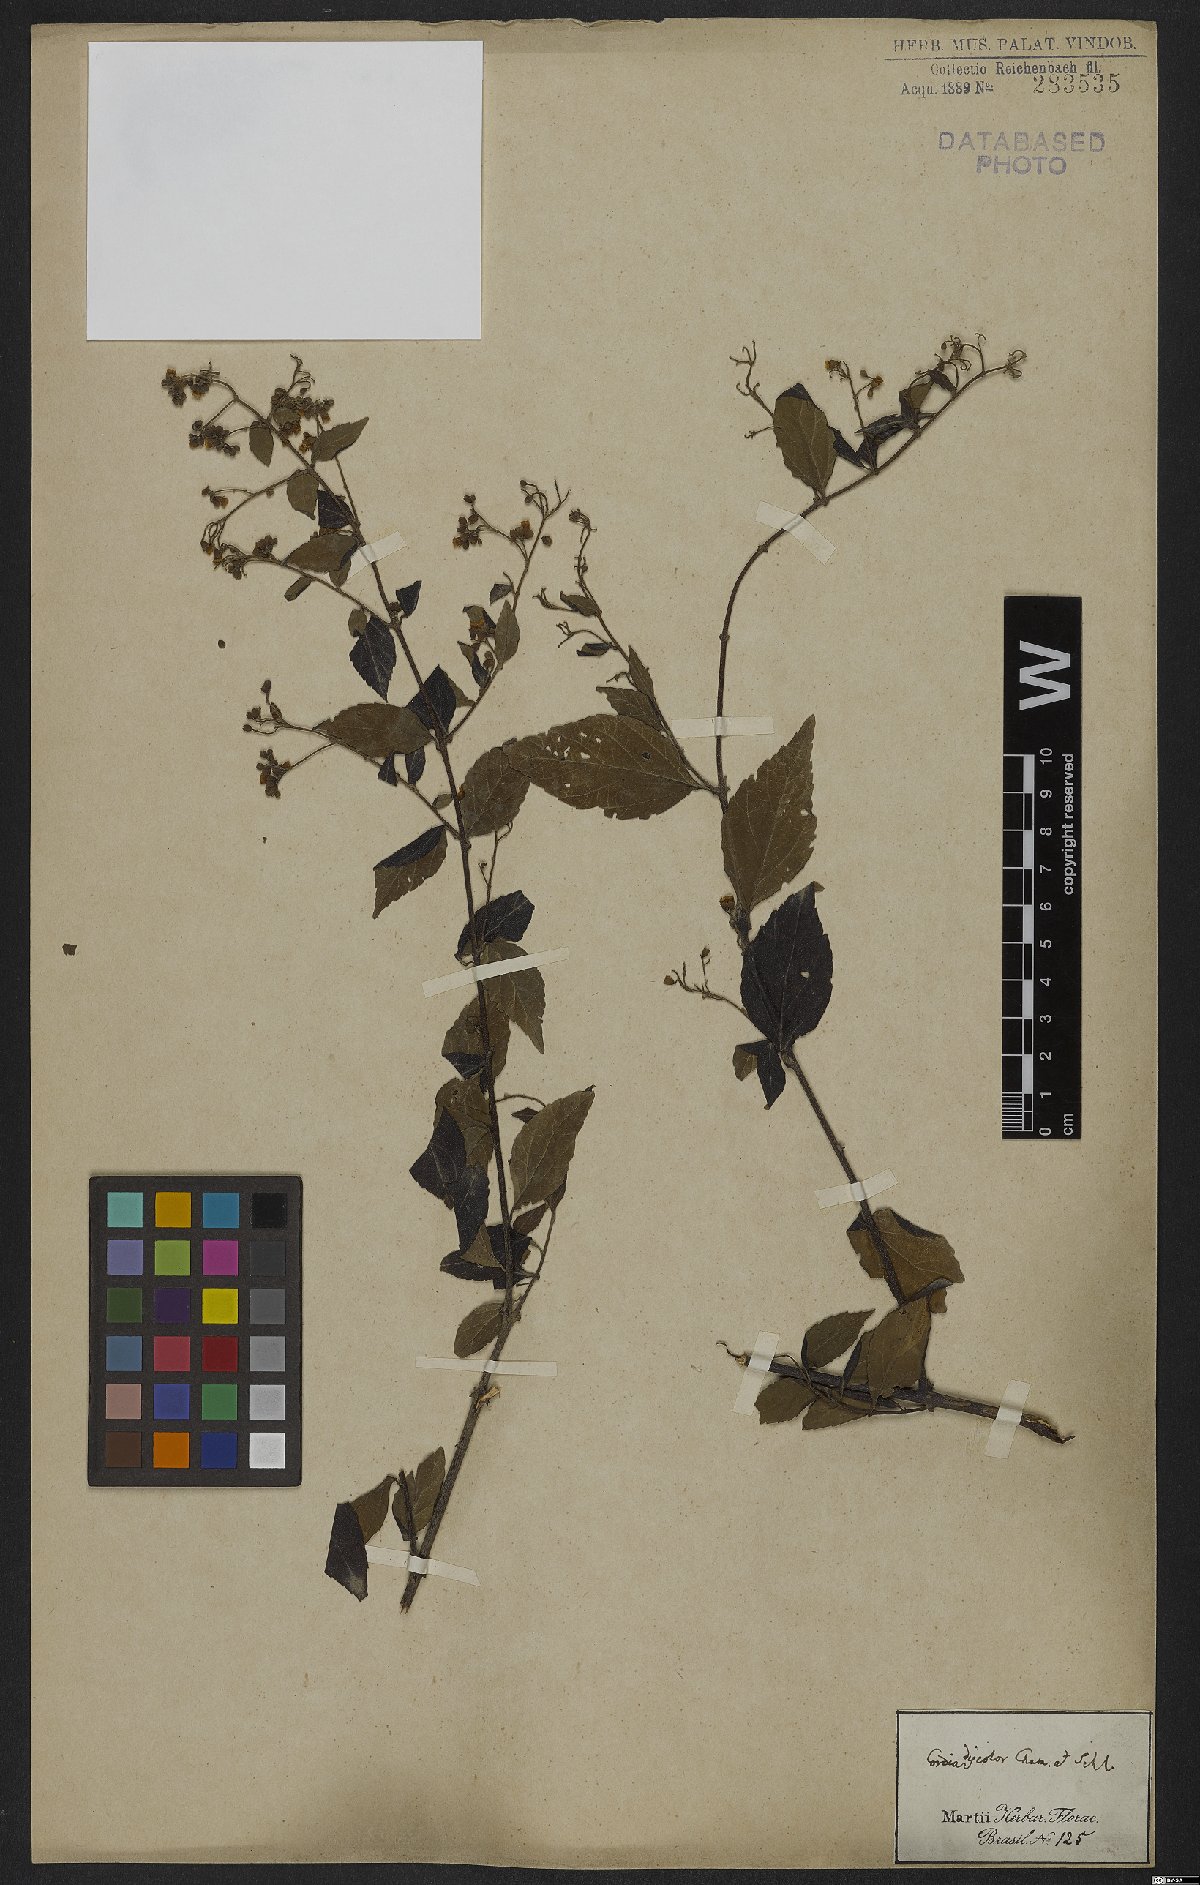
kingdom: Plantae
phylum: Tracheophyta
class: Magnoliopsida
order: Boraginales
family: Cordiaceae
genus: Varronia
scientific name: Varronia discolor
